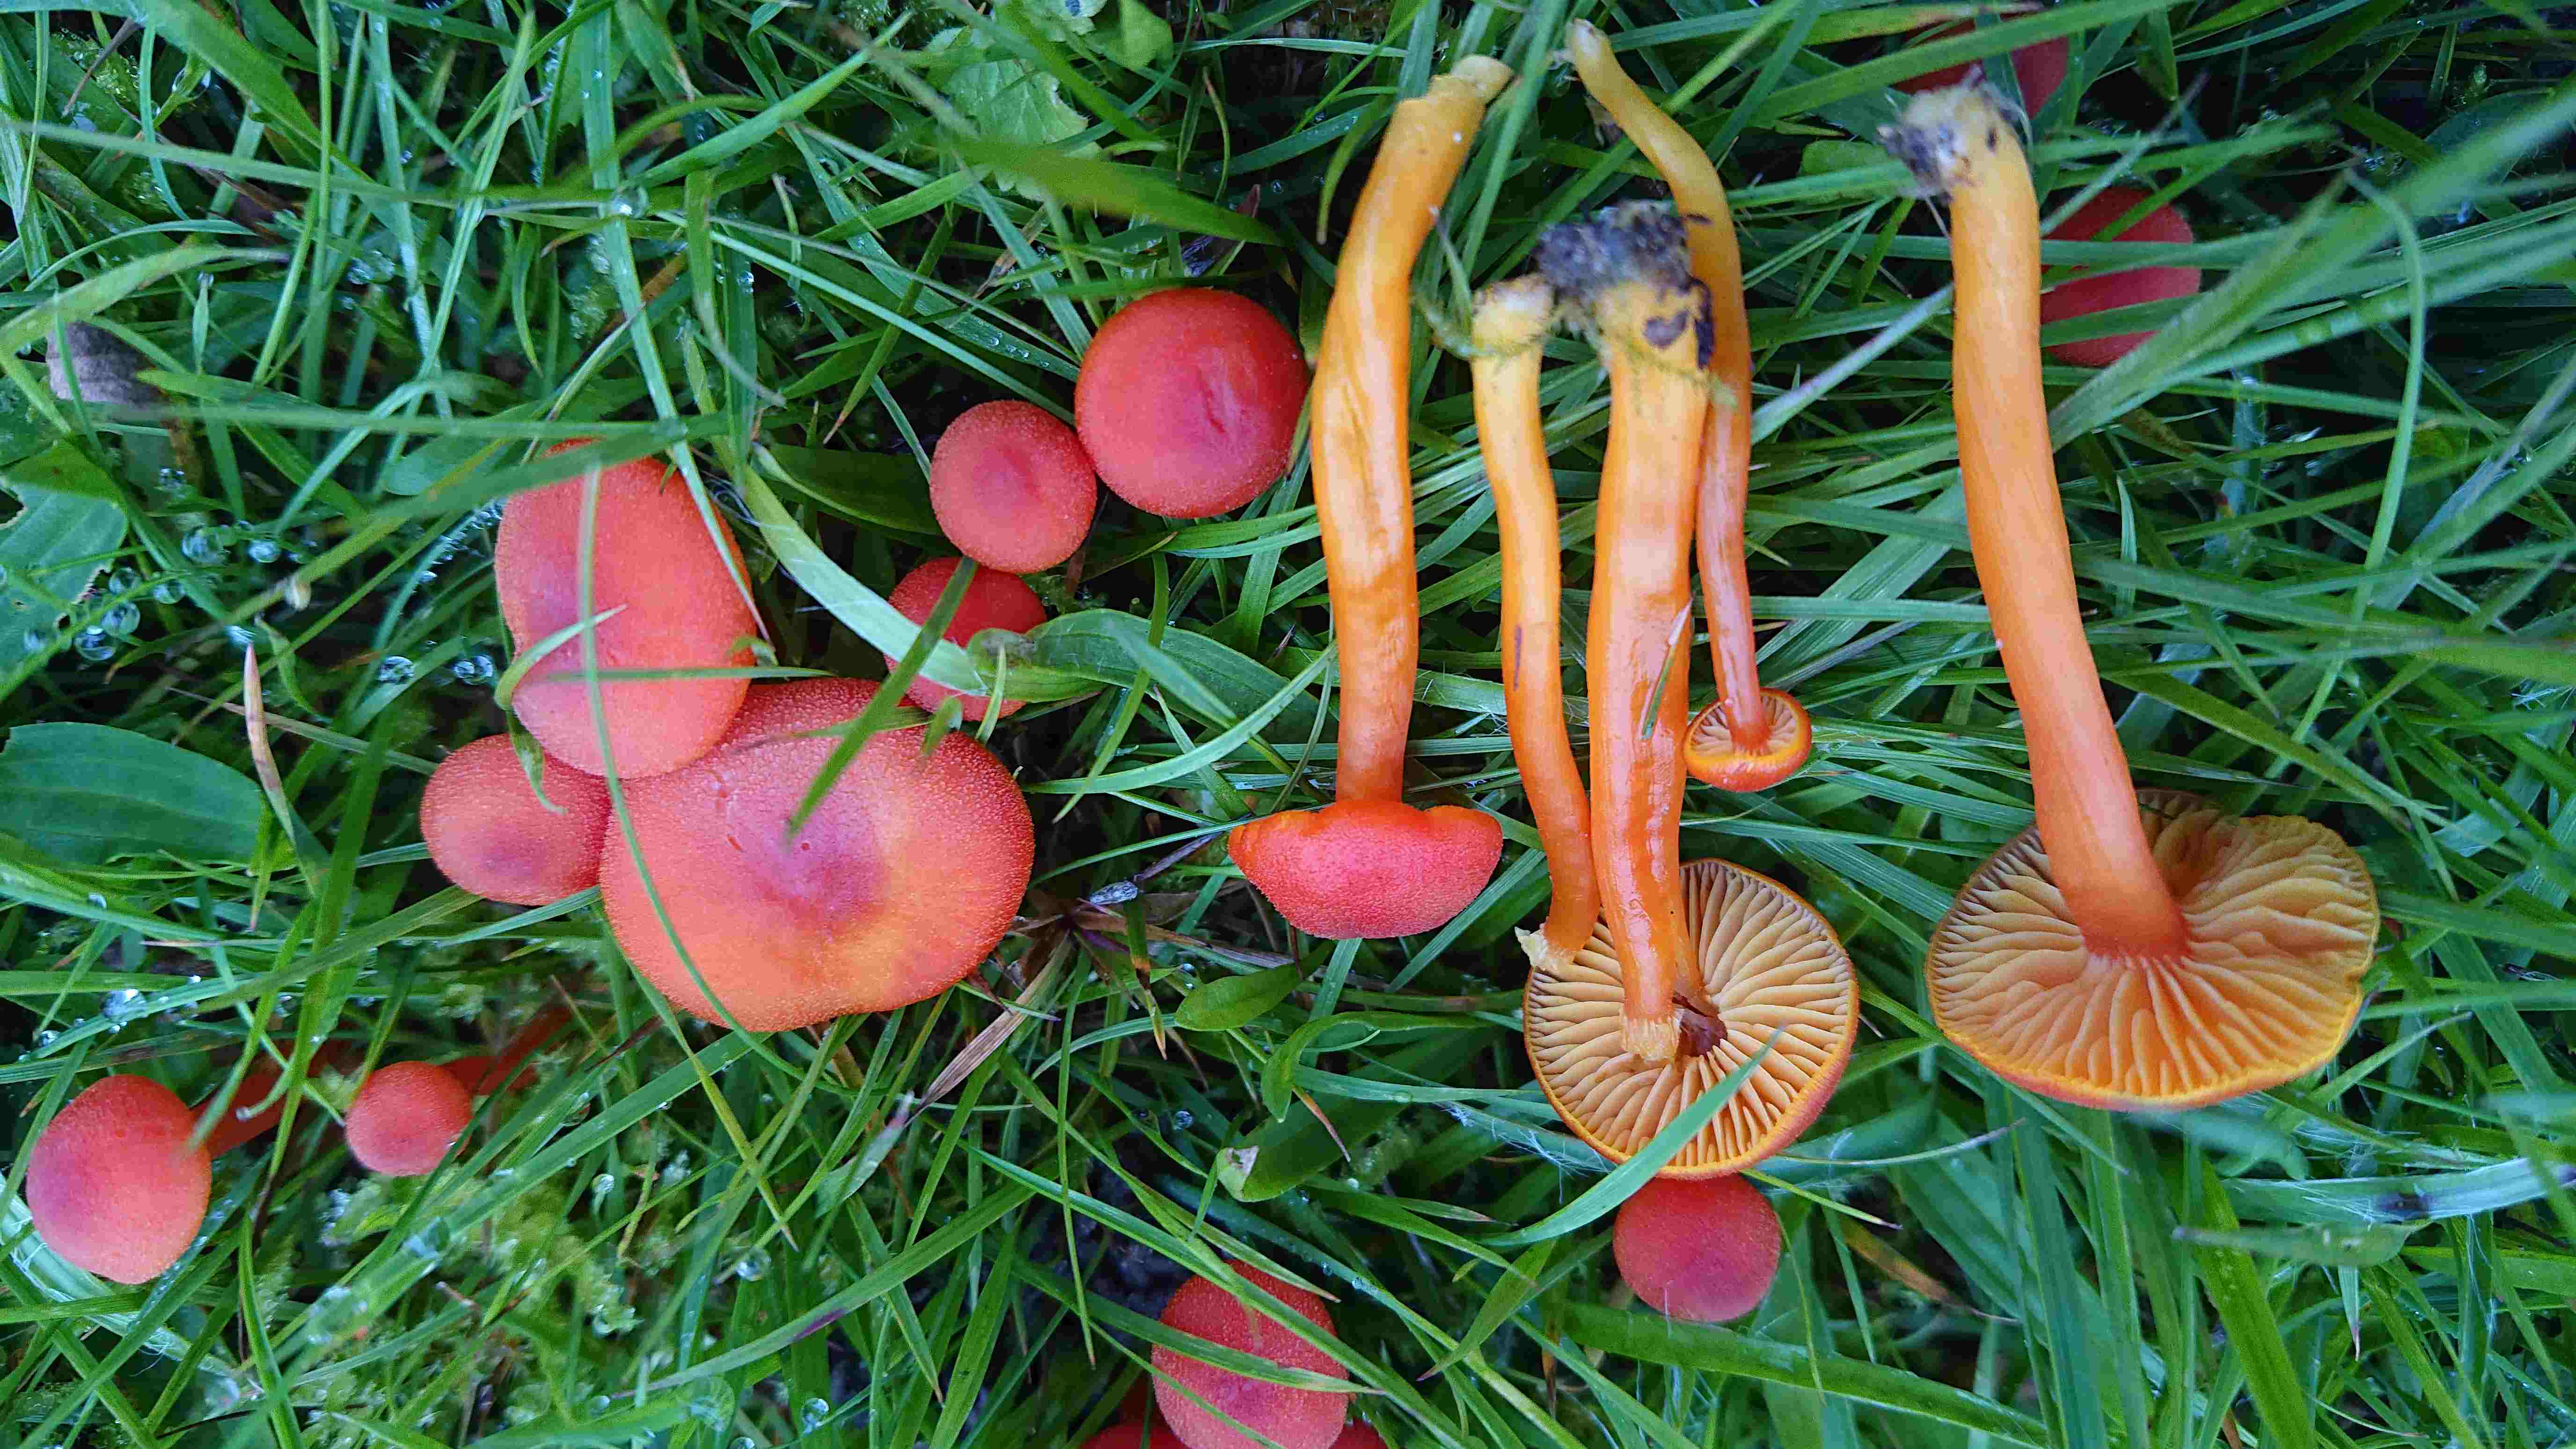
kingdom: Fungi
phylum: Basidiomycota
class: Agaricomycetes
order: Agaricales
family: Hygrophoraceae
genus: Hygrocybe
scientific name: Hygrocybe miniata
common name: mønje-vokshat
